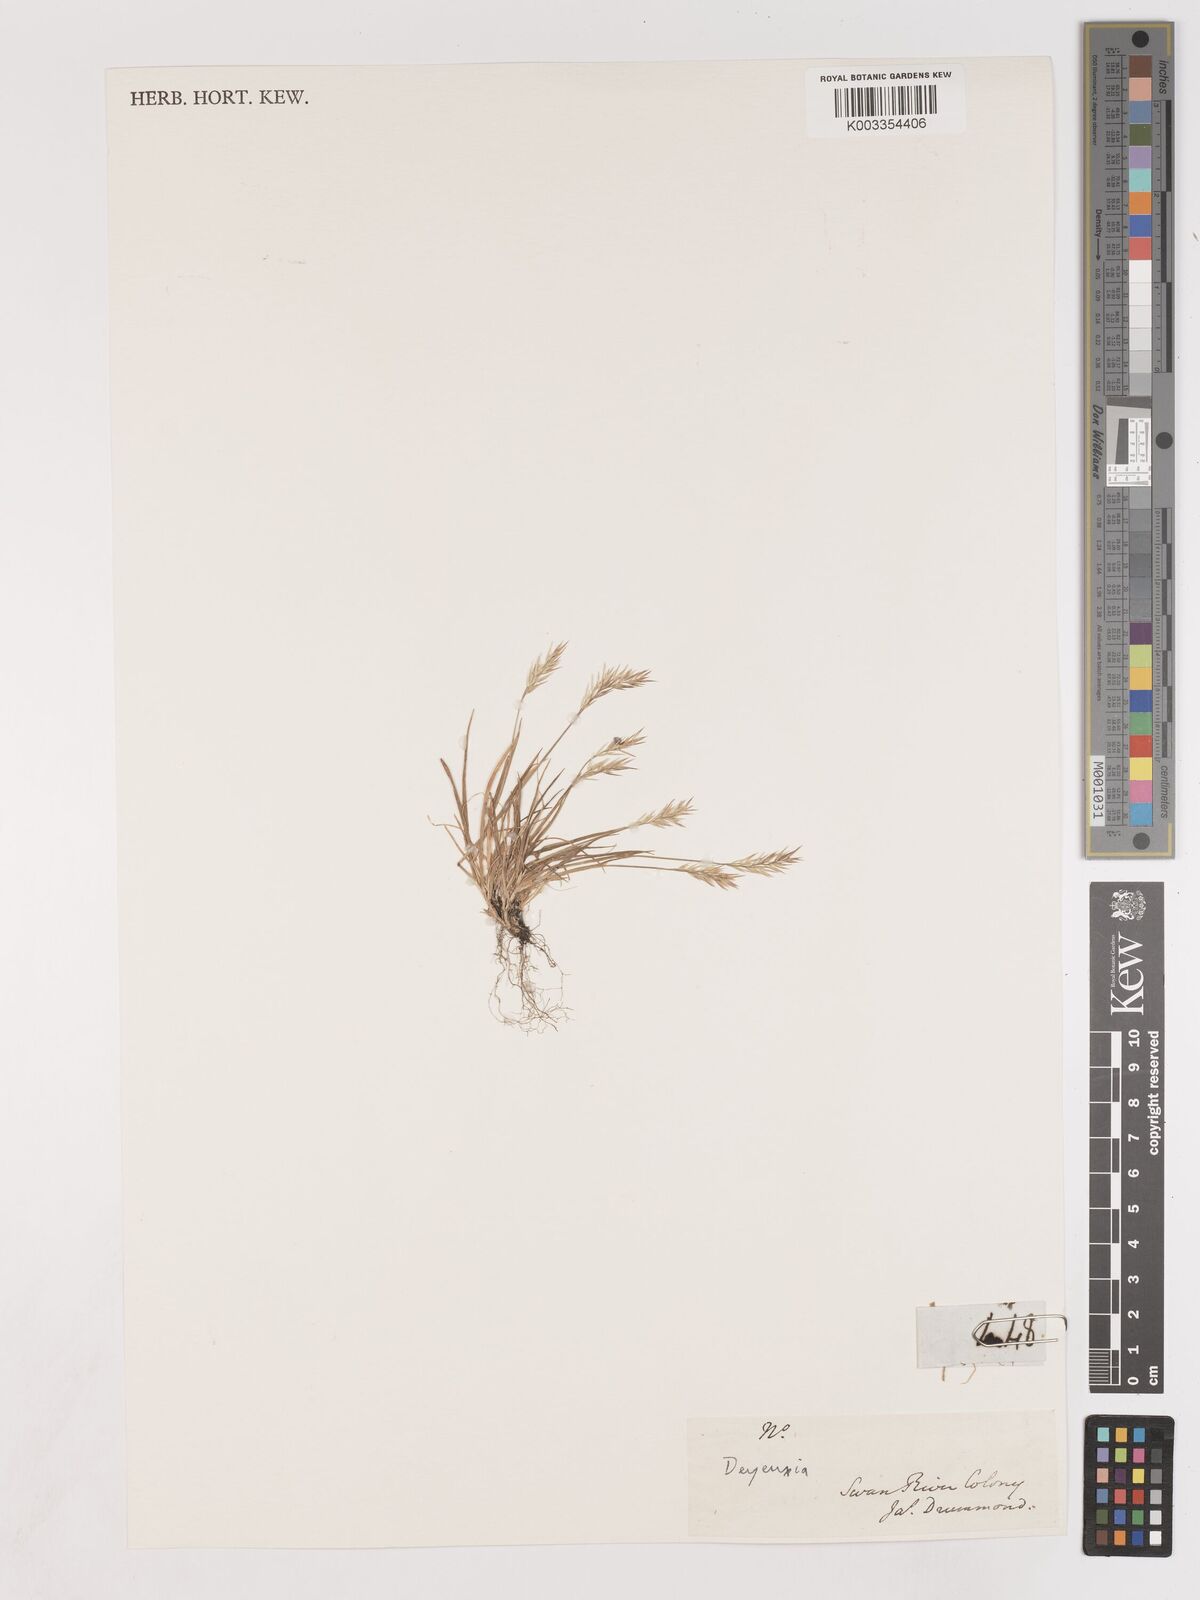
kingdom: Plantae
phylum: Tracheophyta
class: Liliopsida
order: Poales
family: Poaceae
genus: Calamagrostis
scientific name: Calamagrostis
